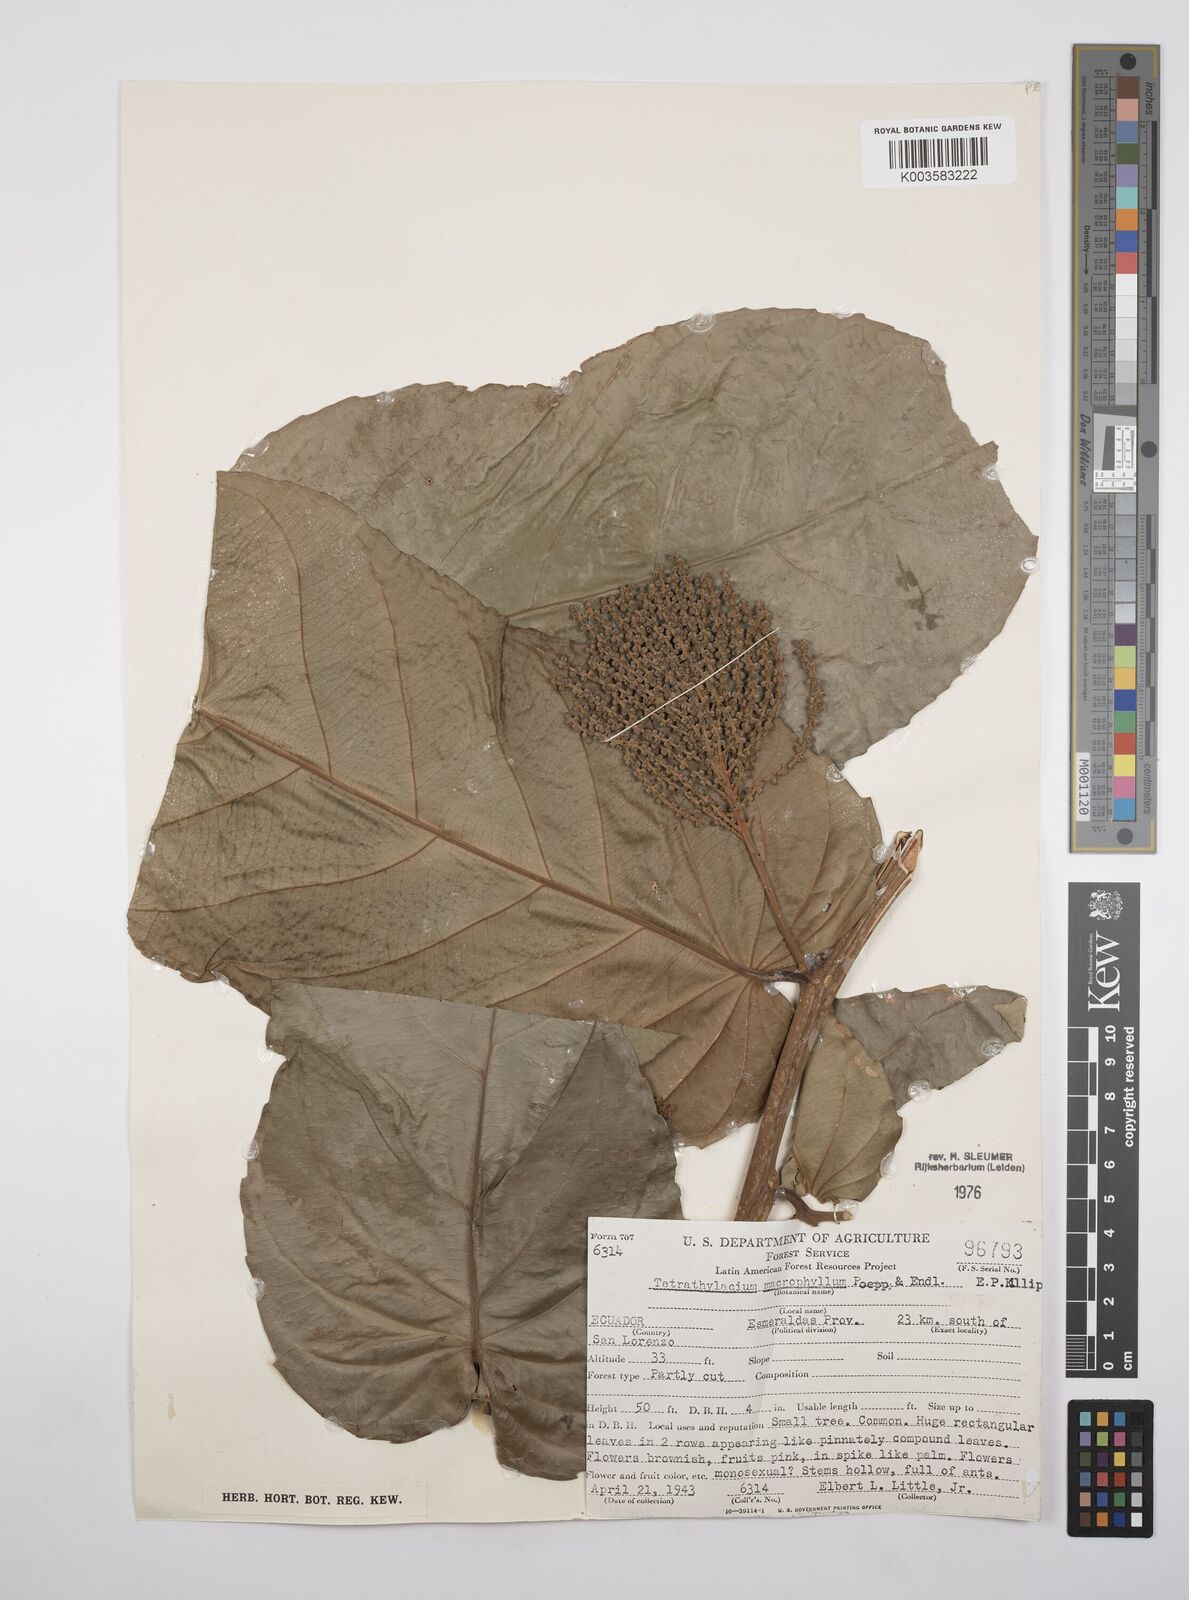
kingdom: Plantae
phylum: Tracheophyta
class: Magnoliopsida
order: Malpighiales
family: Salicaceae
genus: Tetrathylacium
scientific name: Tetrathylacium macrophyllum
